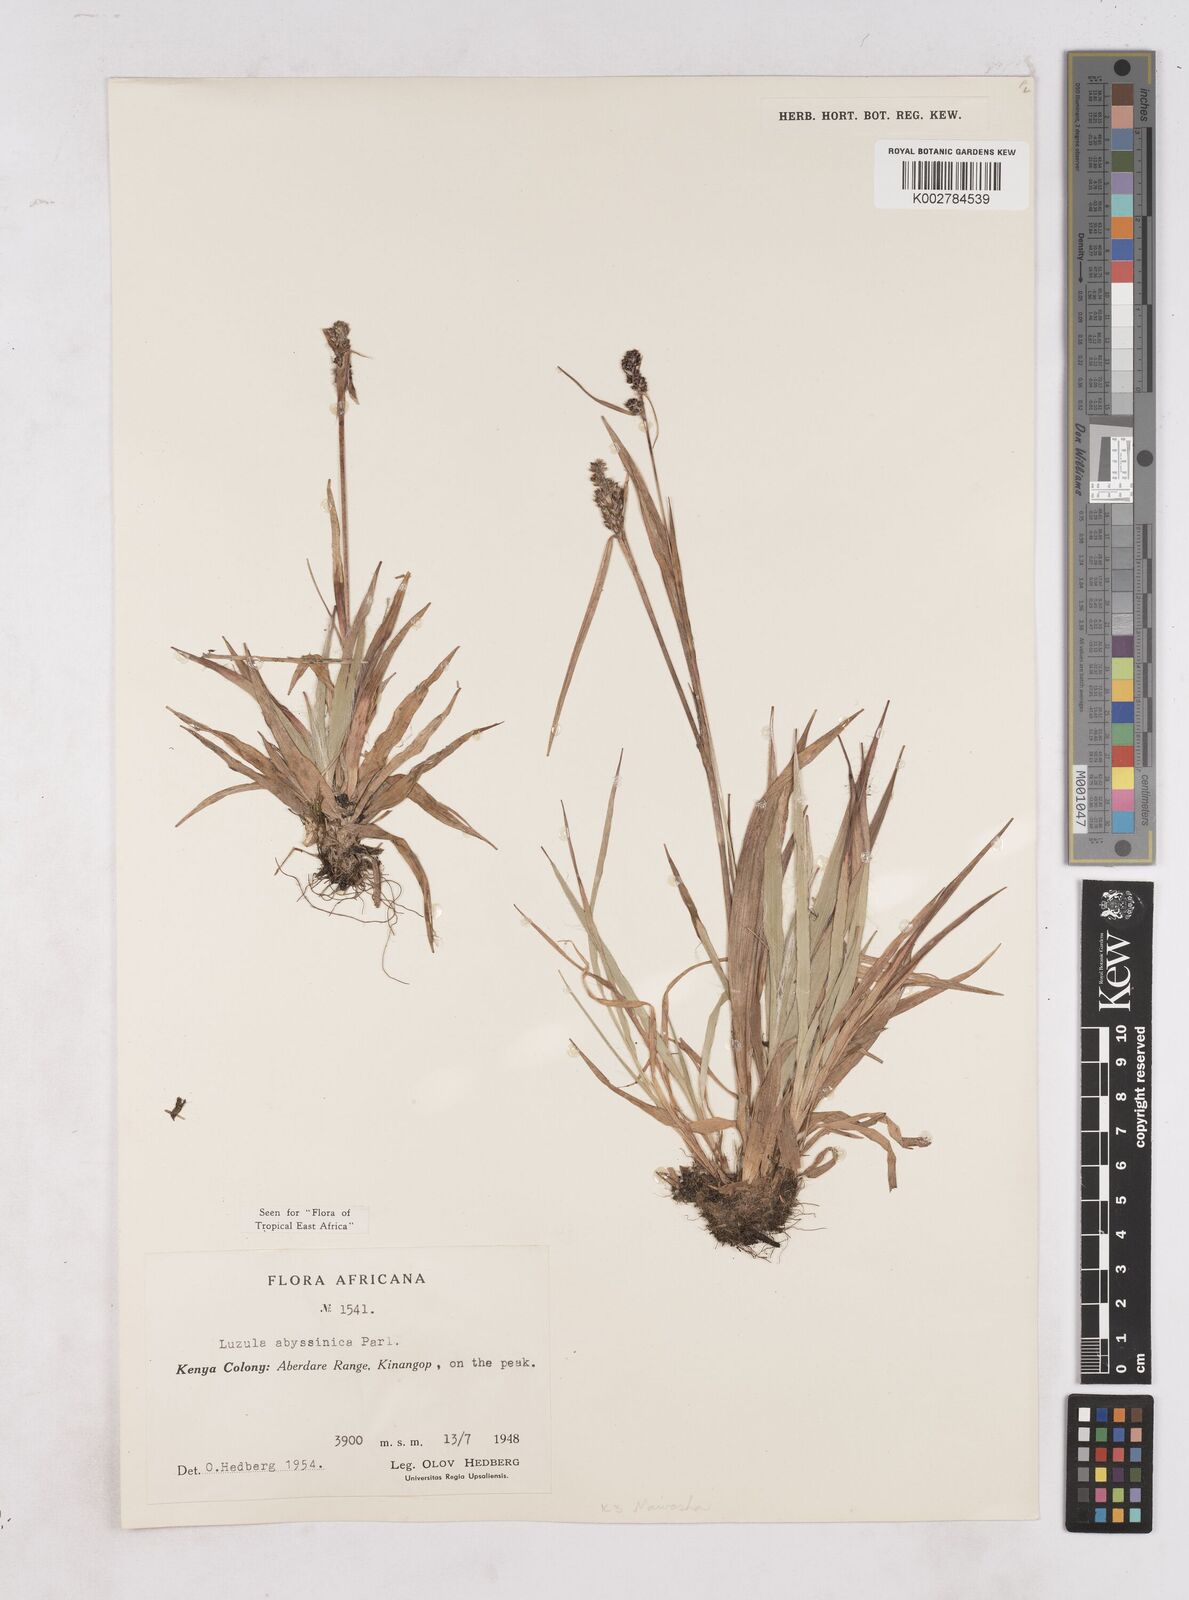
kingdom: Plantae
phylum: Tracheophyta
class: Liliopsida
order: Poales
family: Juncaceae
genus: Luzula
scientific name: Luzula abyssinica
